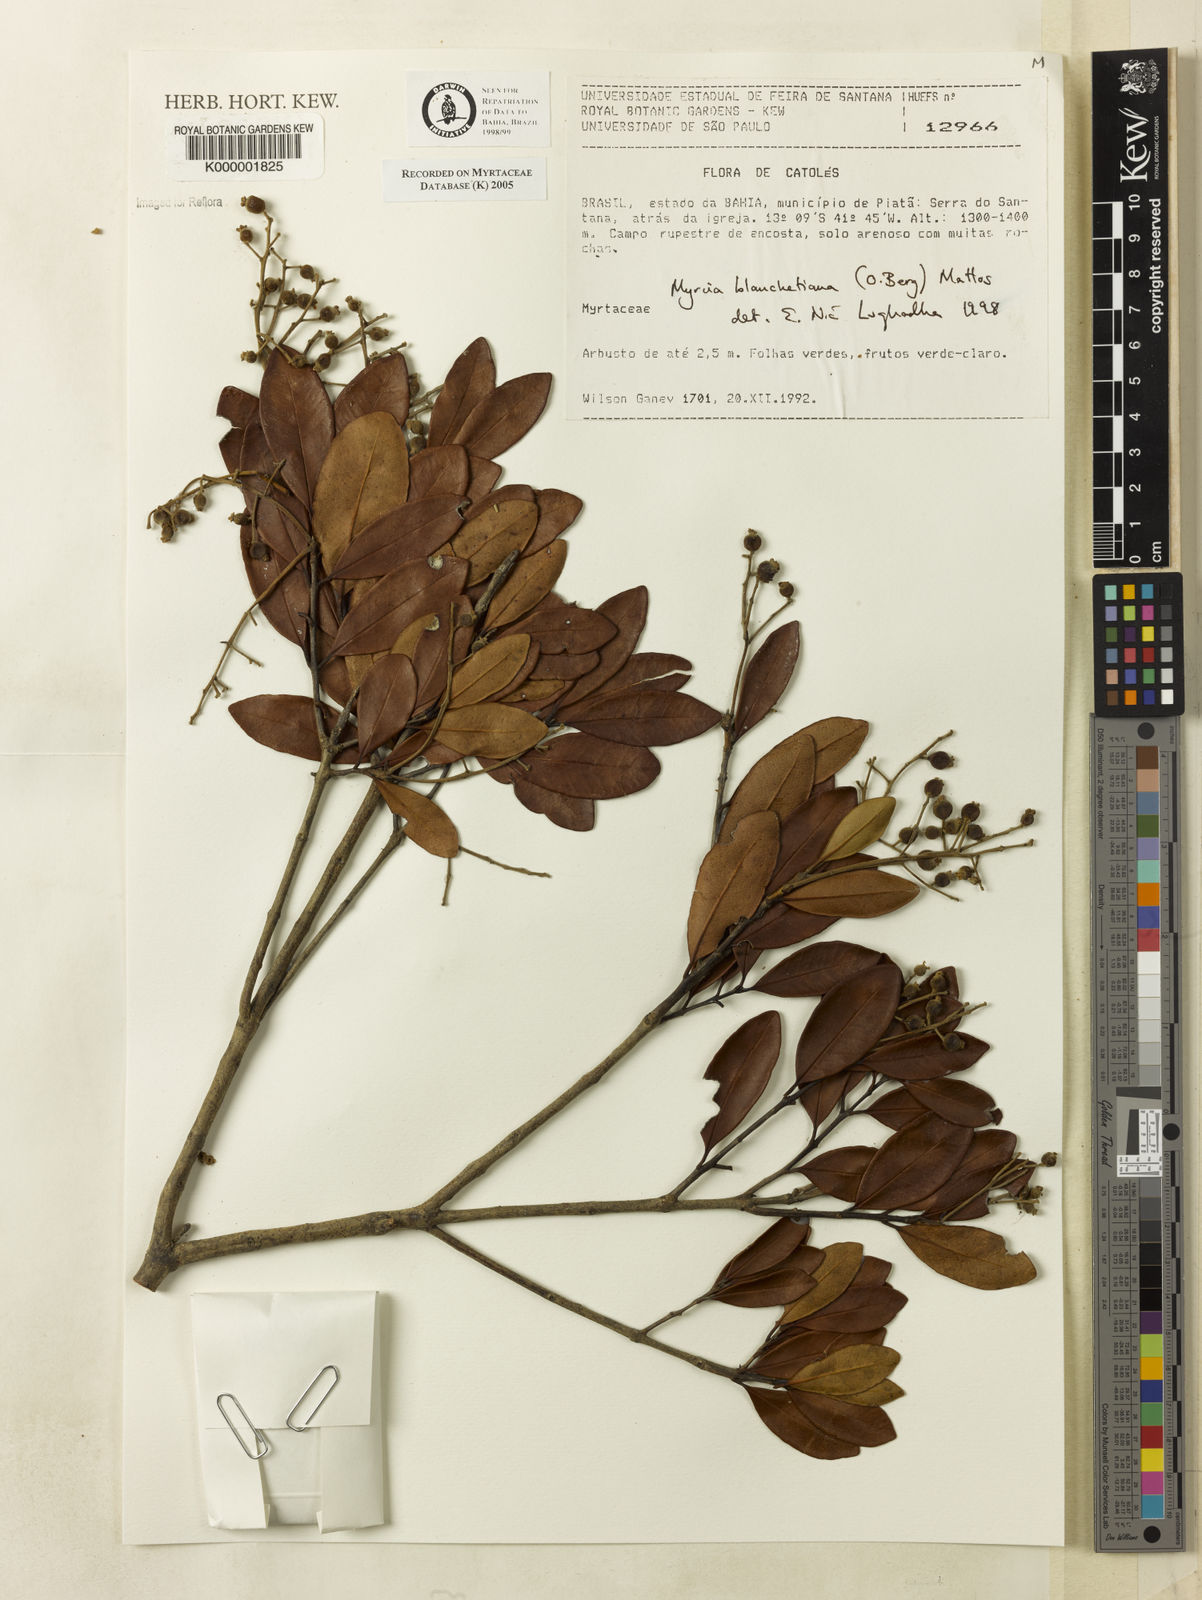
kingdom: Plantae
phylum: Tracheophyta
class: Magnoliopsida
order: Myrtales
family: Myrtaceae
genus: Myrcia
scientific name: Myrcia blanchetiana
